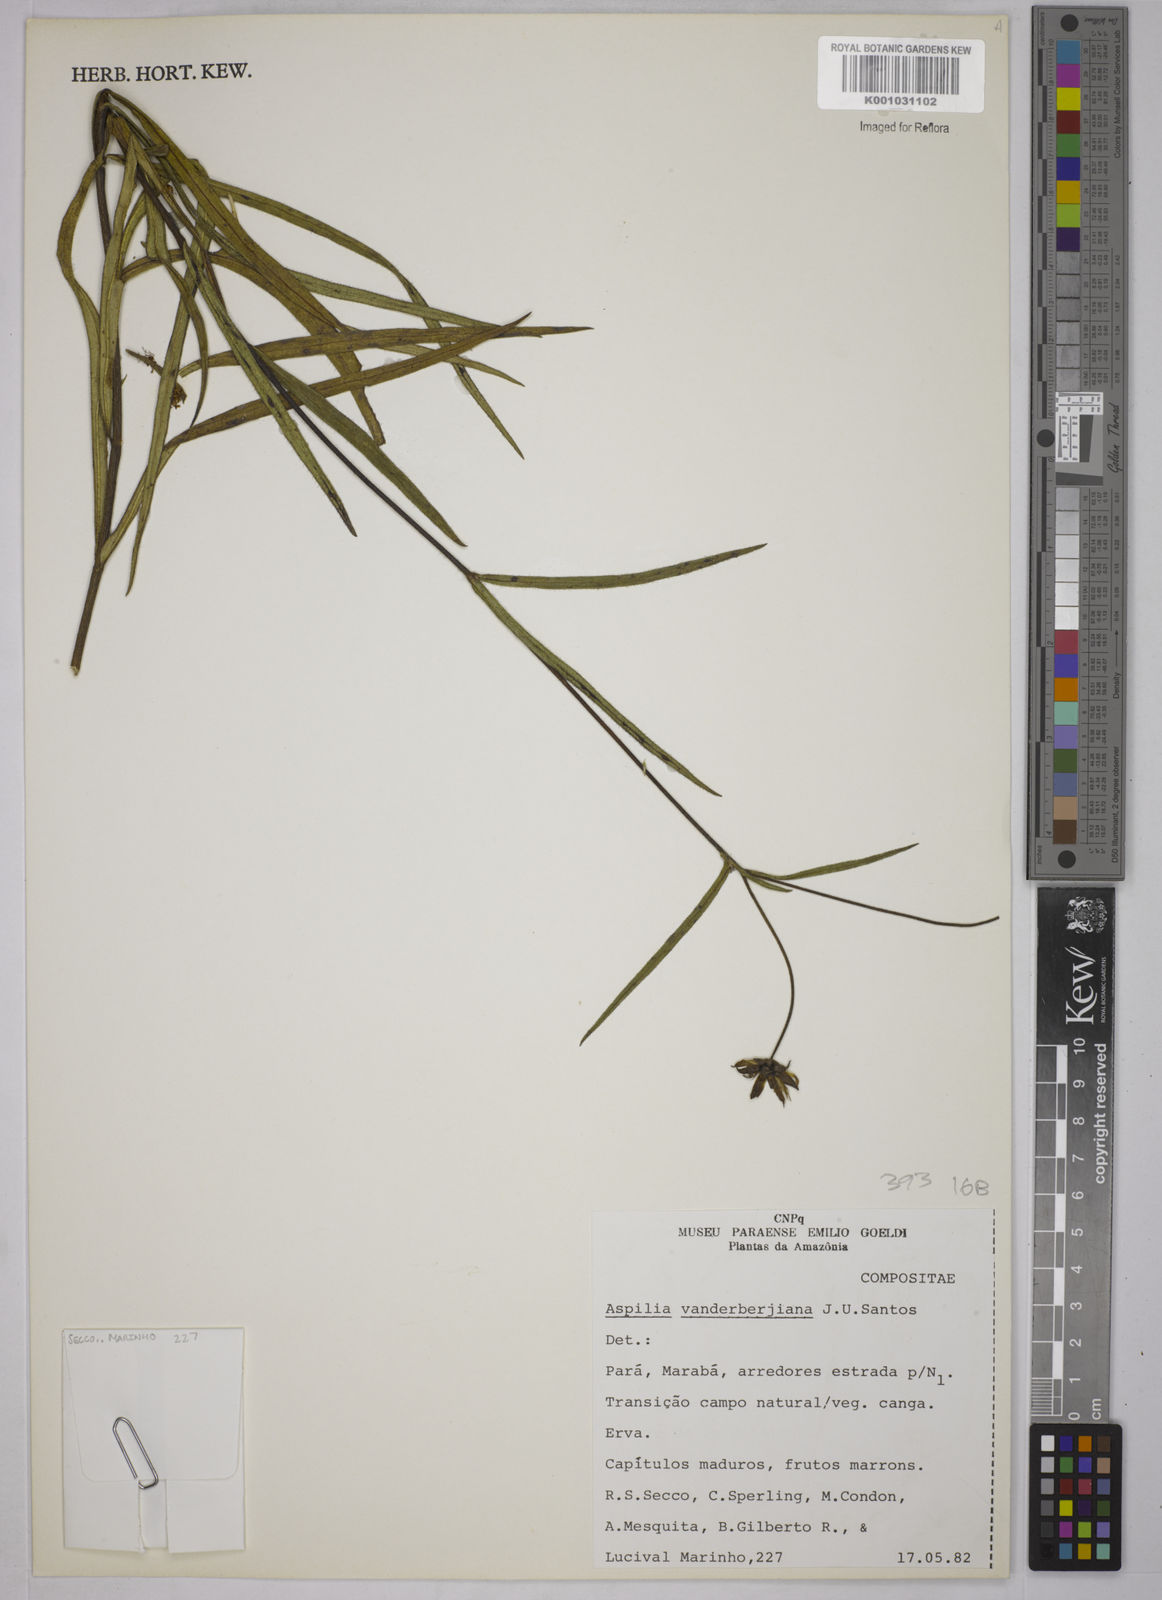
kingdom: Plantae
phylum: Tracheophyta
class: Magnoliopsida
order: Asterales
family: Asteraceae
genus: Wedelia
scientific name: Wedelia attenuata
